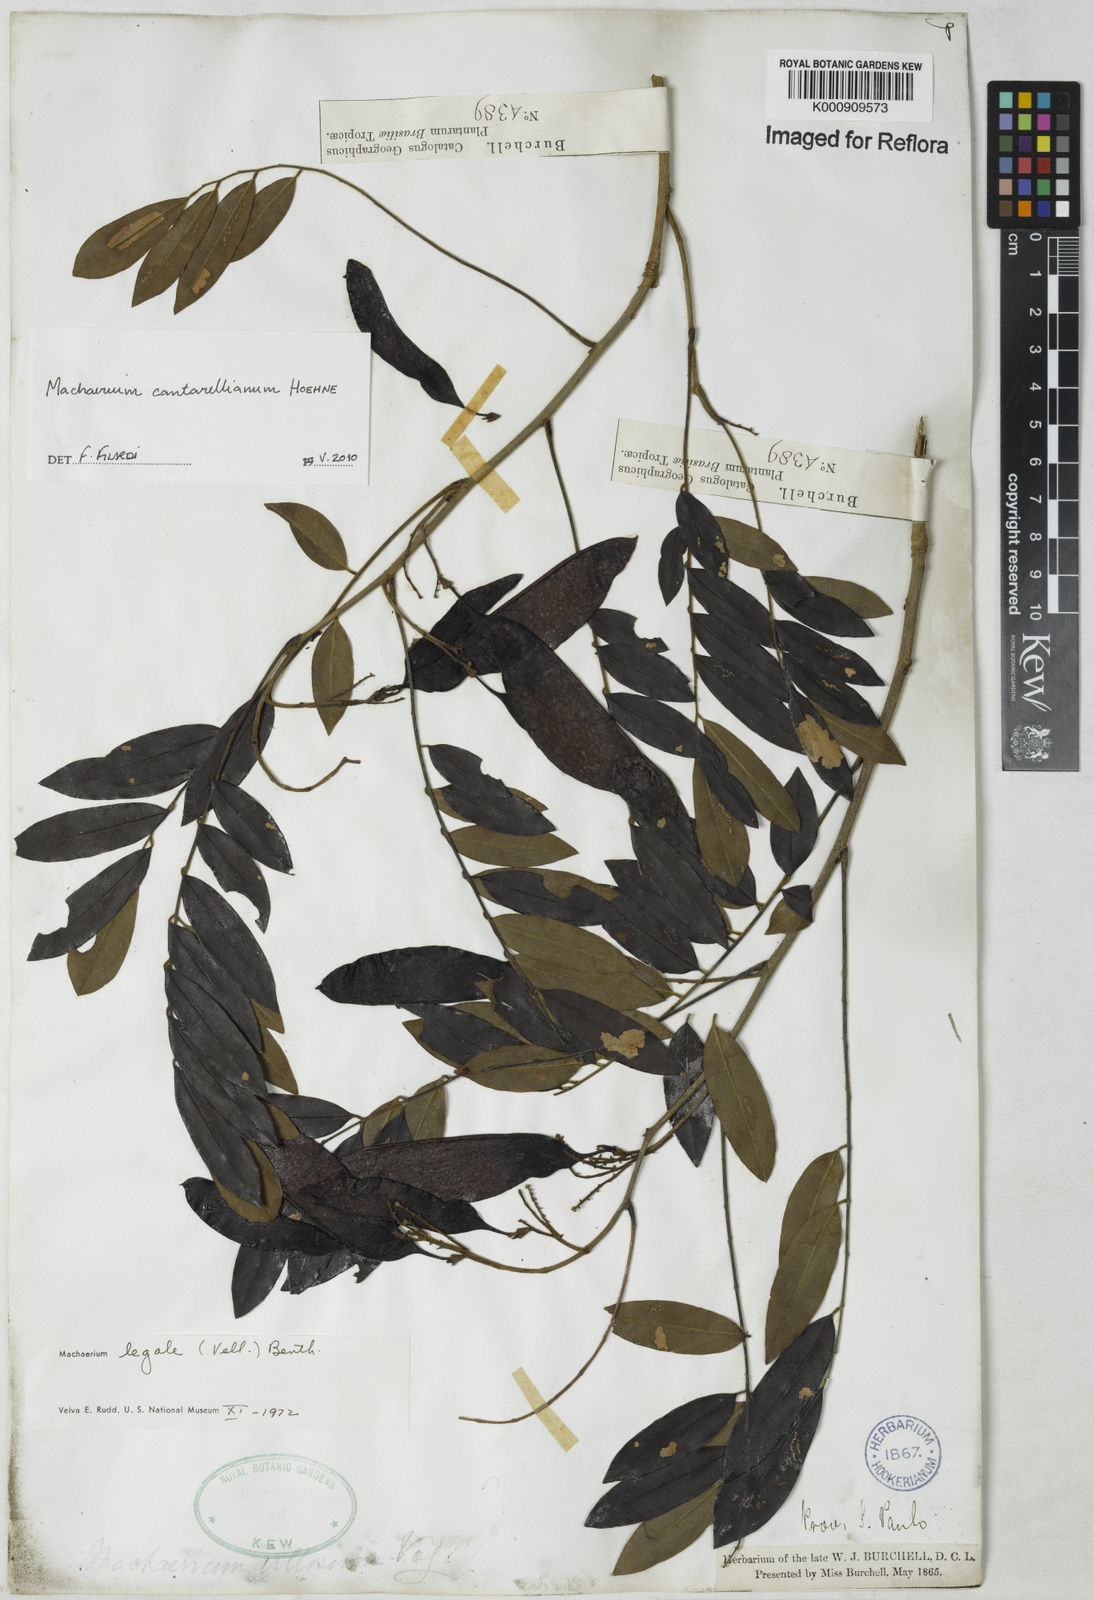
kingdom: Plantae
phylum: Tracheophyta
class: Magnoliopsida
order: Fabales
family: Fabaceae
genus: Machaerium
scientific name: Machaerium cantarellianum
